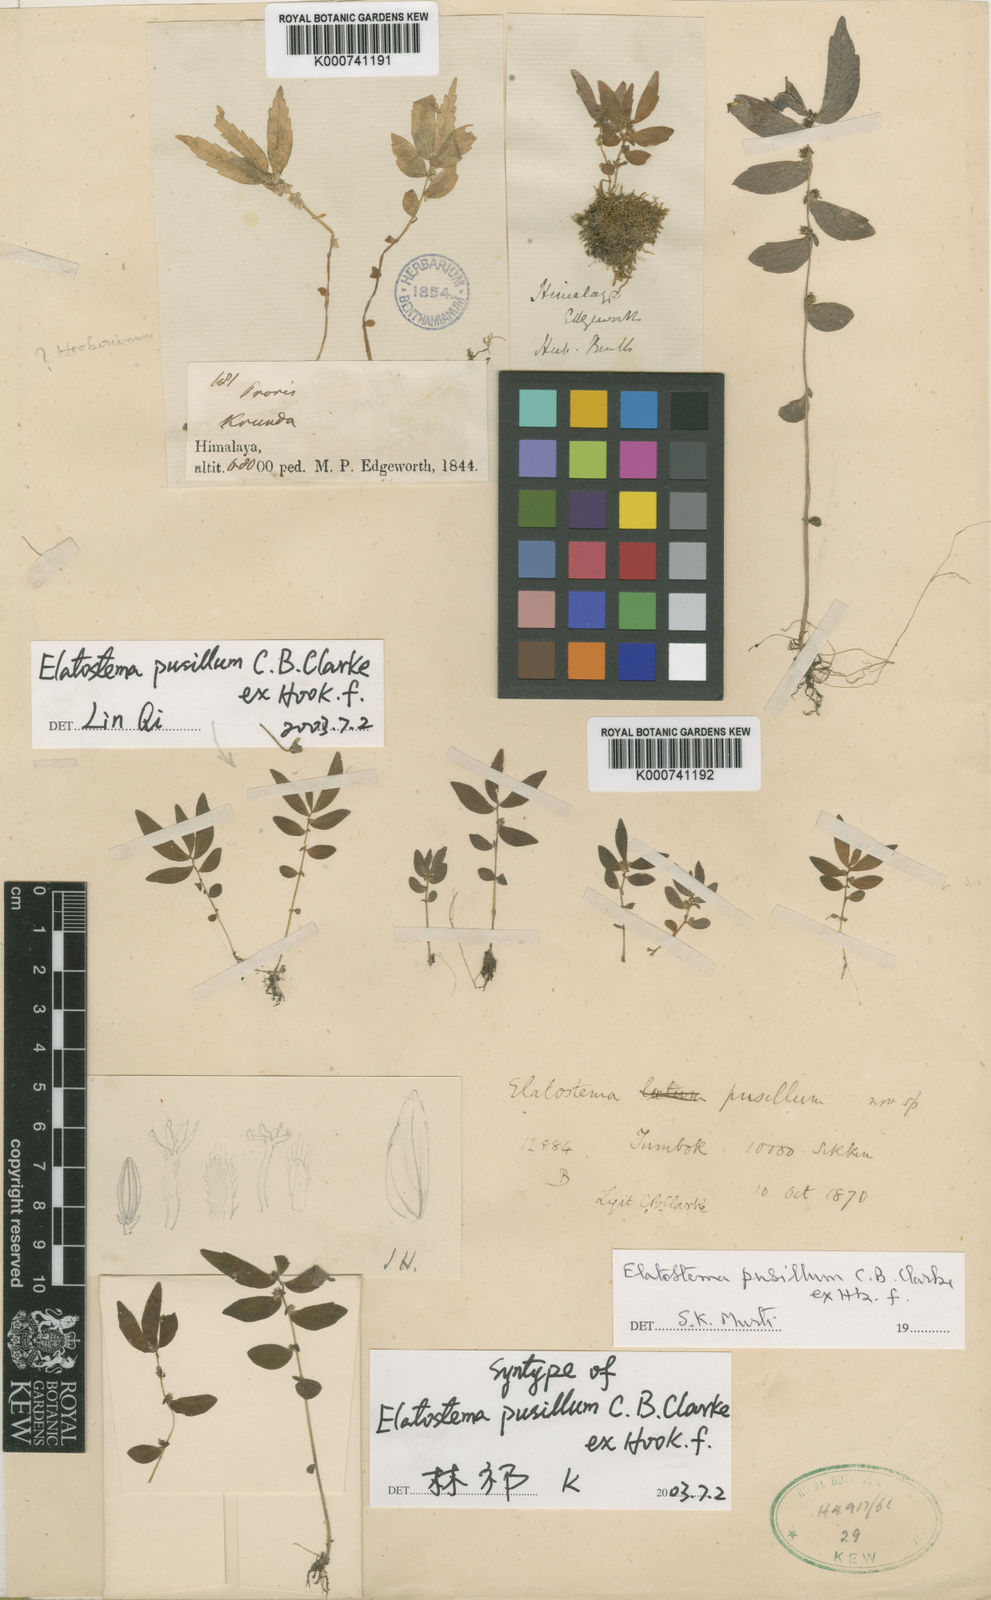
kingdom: Plantae
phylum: Tracheophyta
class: Magnoliopsida
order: Rosales
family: Urticaceae
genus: Elatostema
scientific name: Elatostema pusillum
